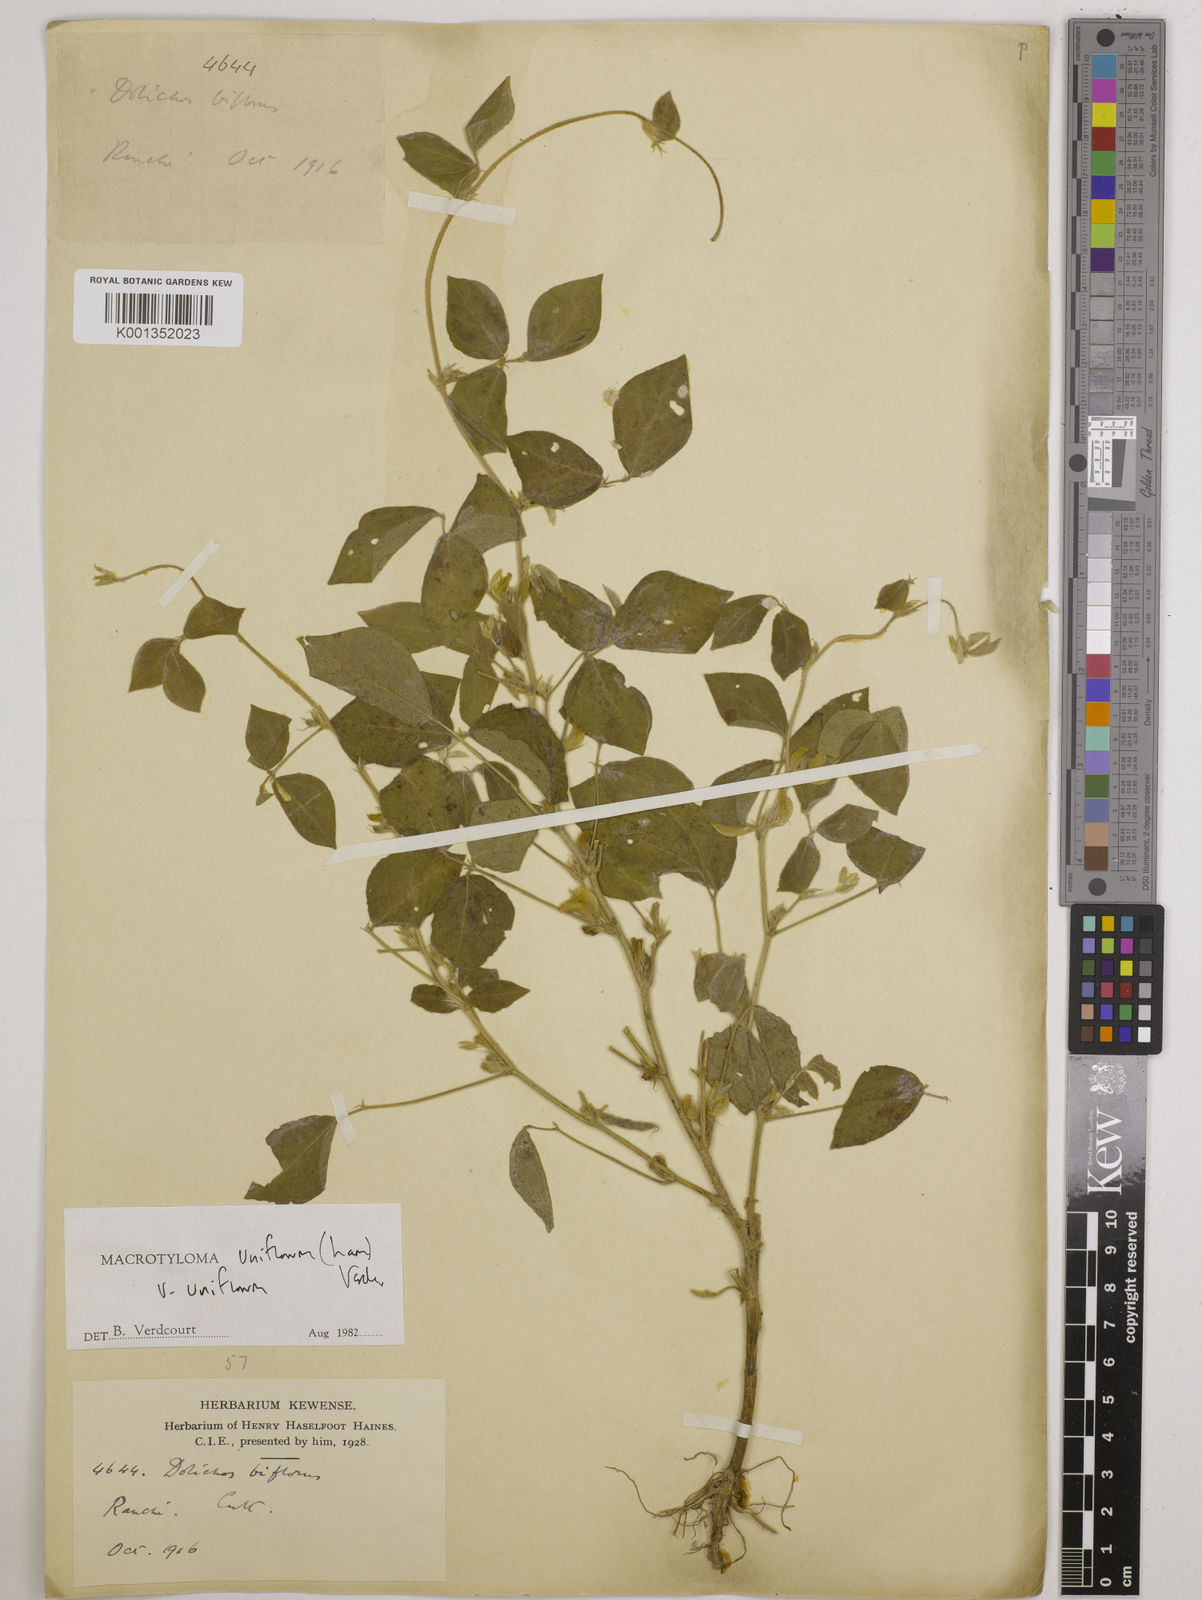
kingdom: Plantae
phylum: Tracheophyta
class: Magnoliopsida
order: Fabales
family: Fabaceae
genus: Macrotyloma
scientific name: Macrotyloma uniflorum
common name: Horse gram
